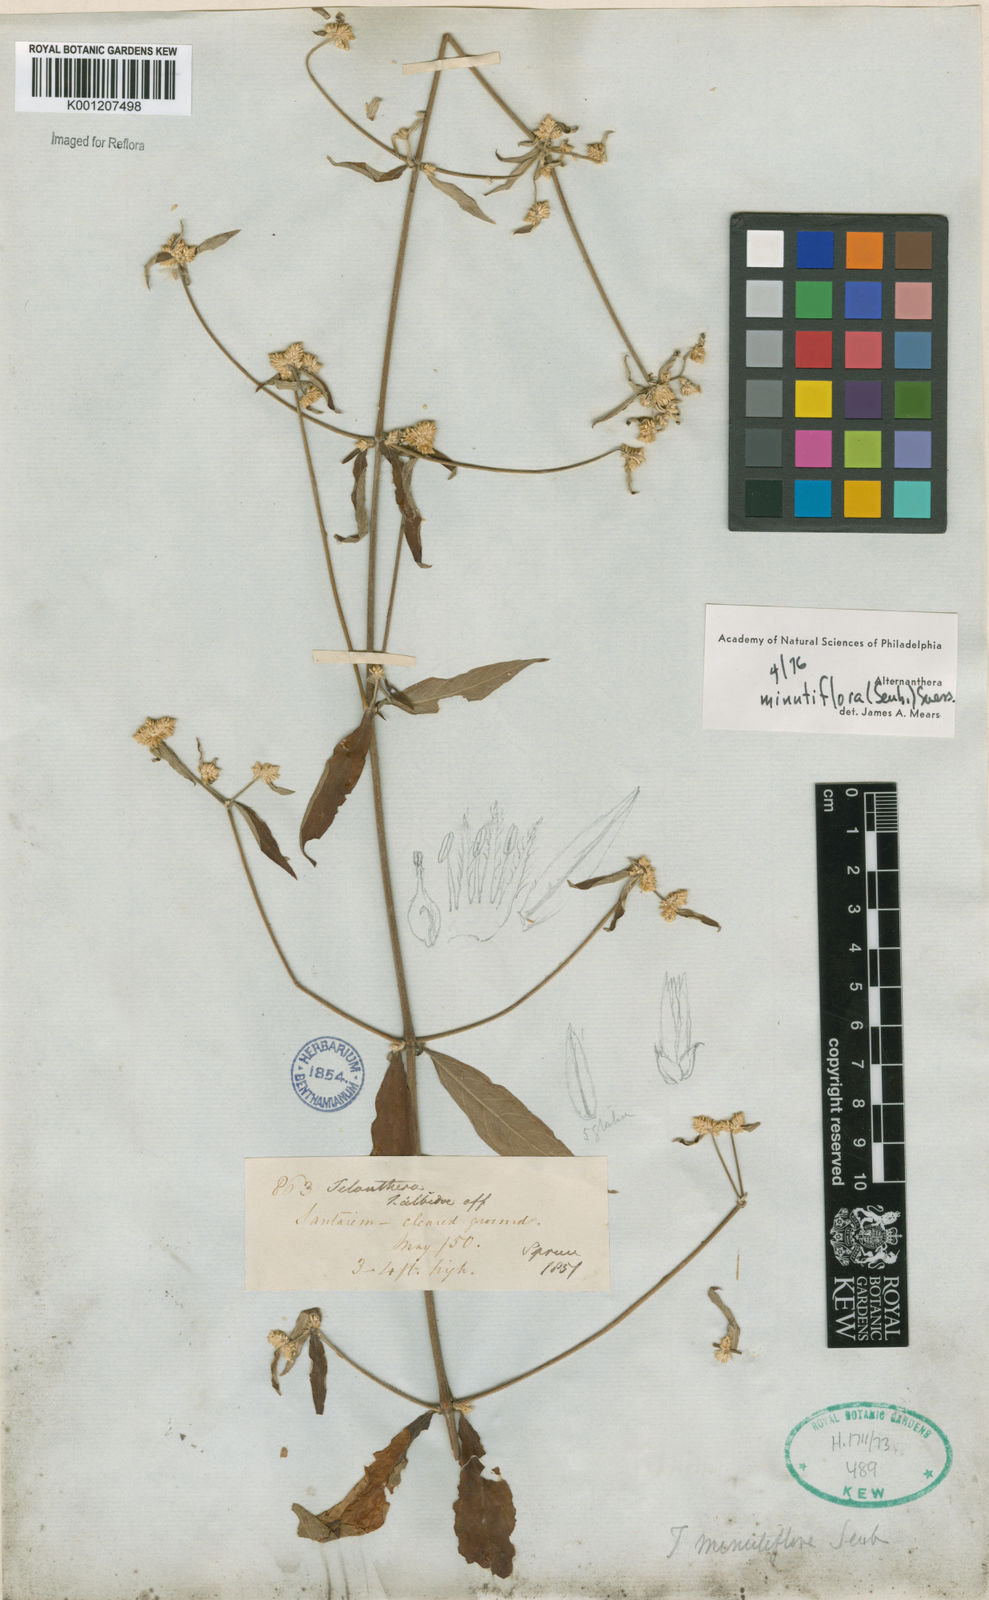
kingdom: Plantae
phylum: Tracheophyta
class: Magnoliopsida
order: Caryophyllales
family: Amaranthaceae
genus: Alternanthera
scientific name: Alternanthera minutiflora
